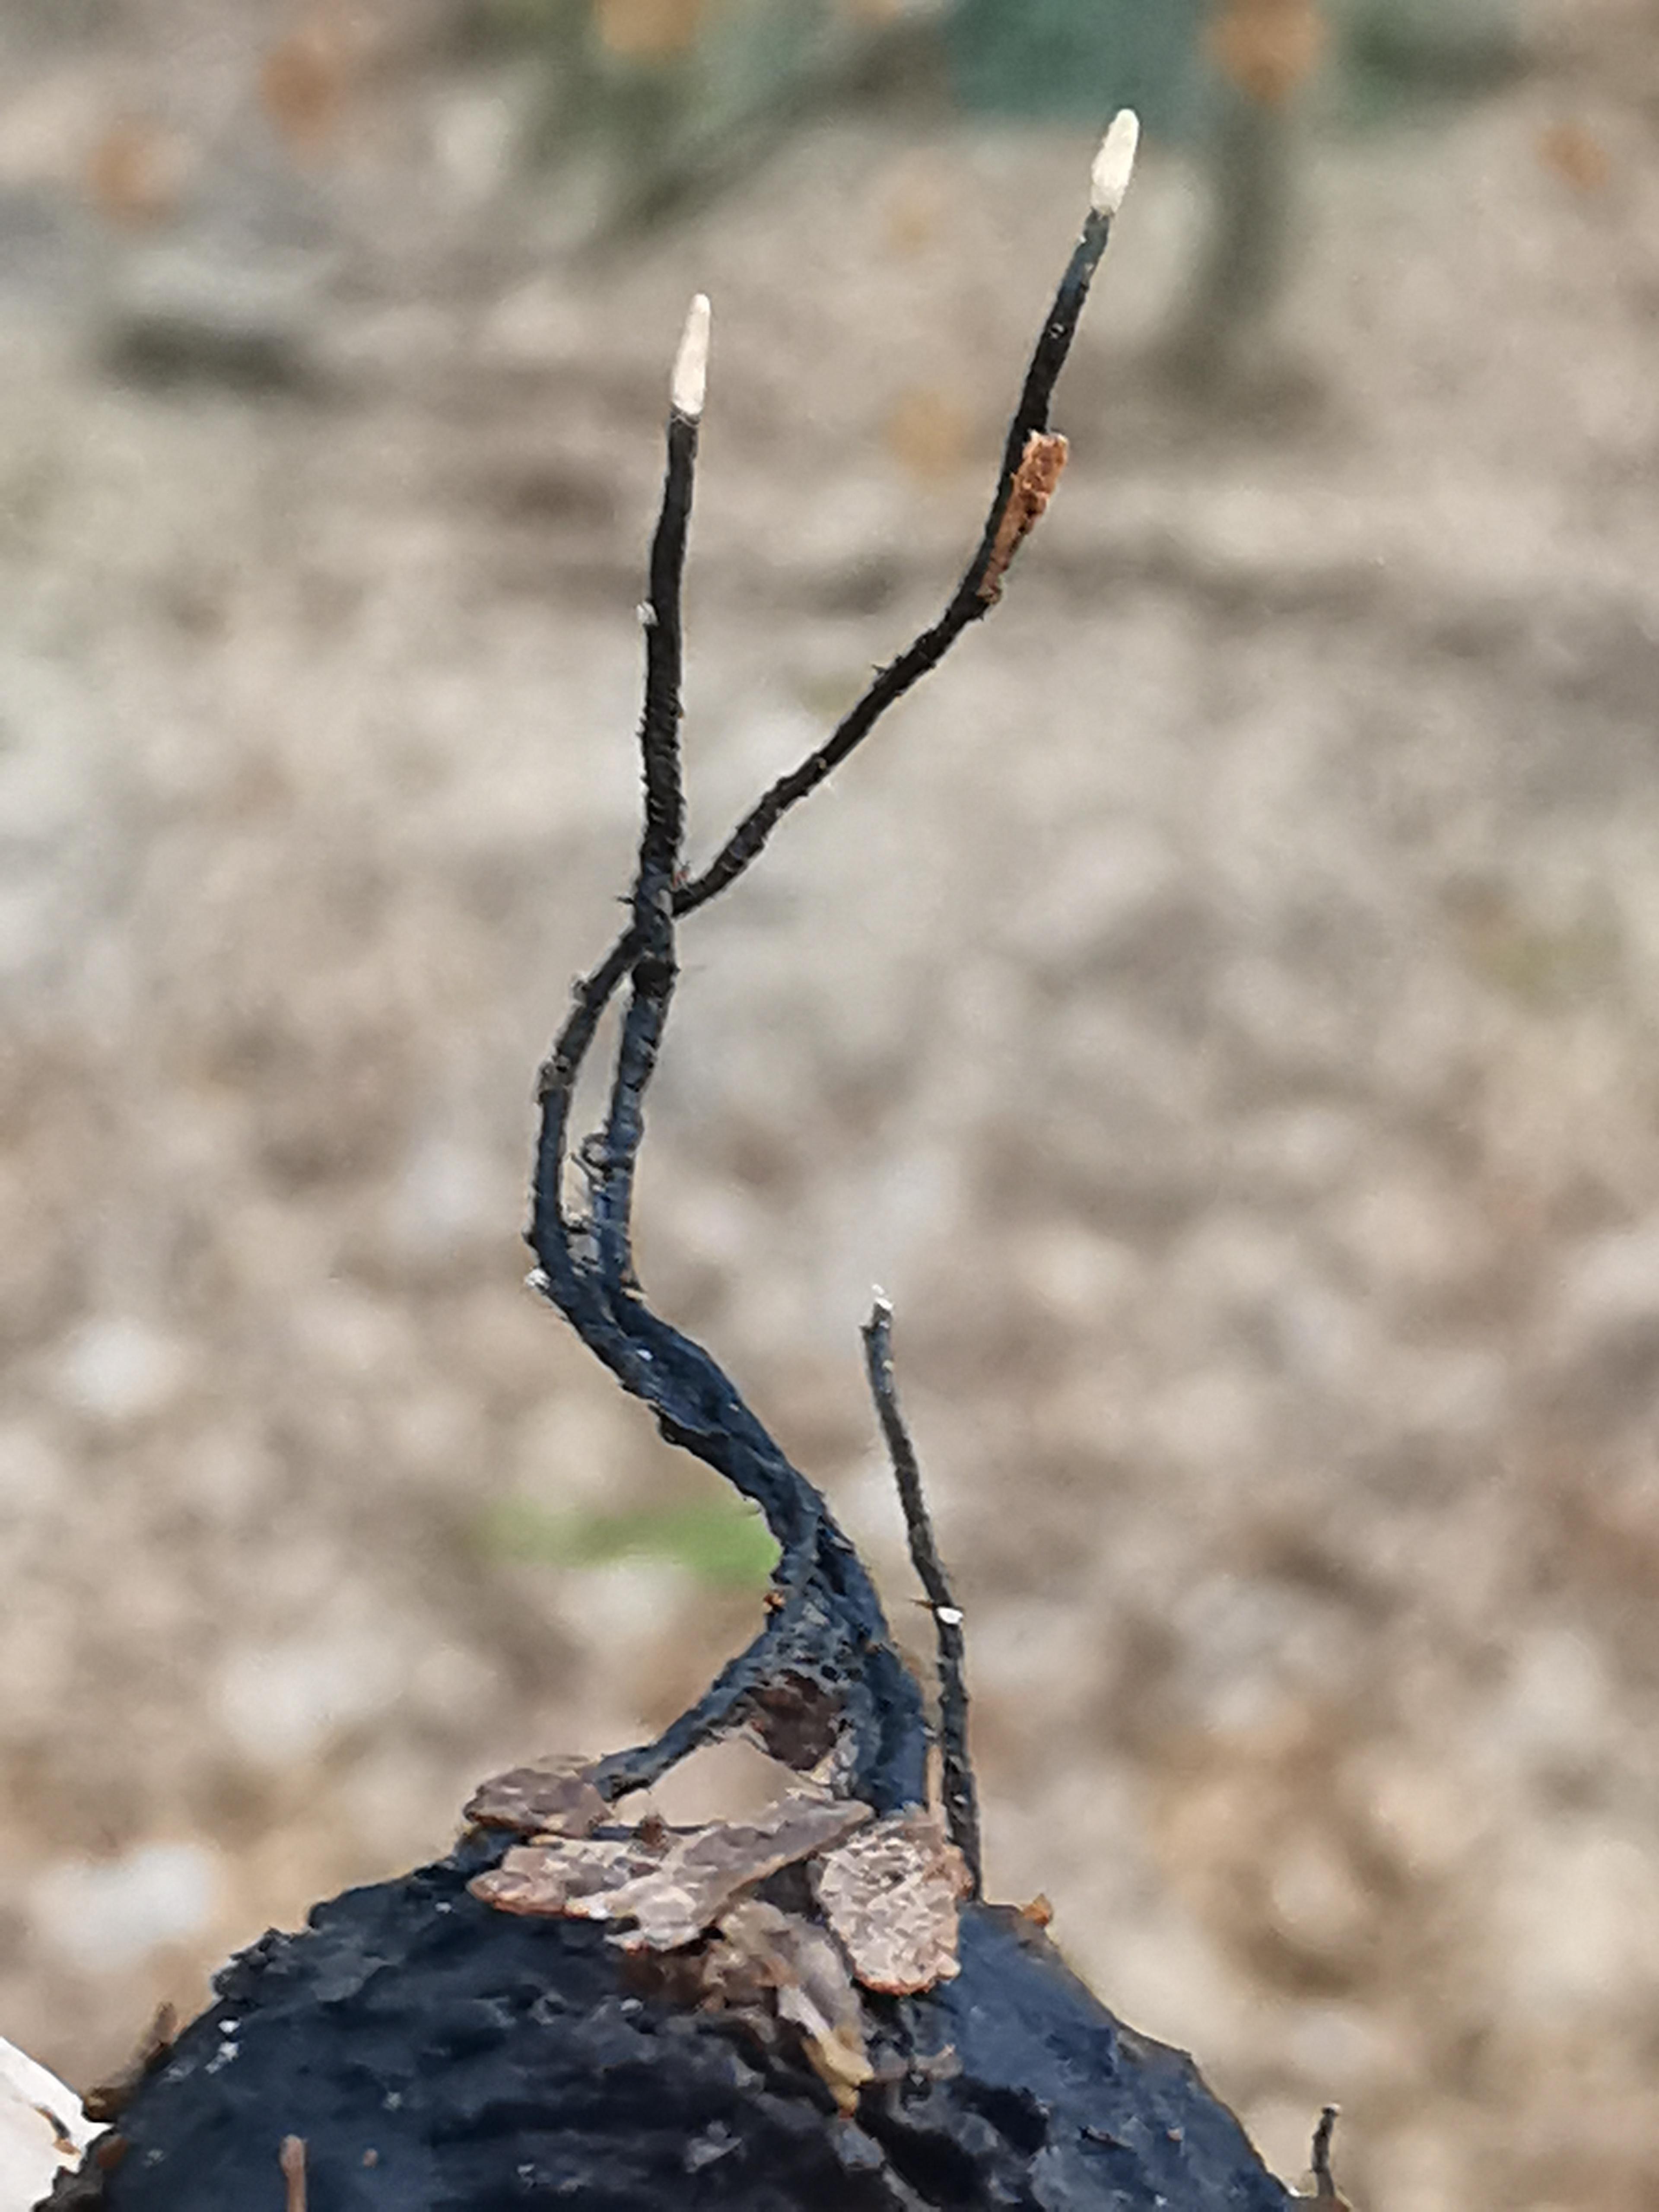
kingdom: Fungi
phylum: Ascomycota
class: Sordariomycetes
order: Xylariales
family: Xylariaceae
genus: Xylaria
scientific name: Xylaria carpophila
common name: bogskål-stødsvamp
